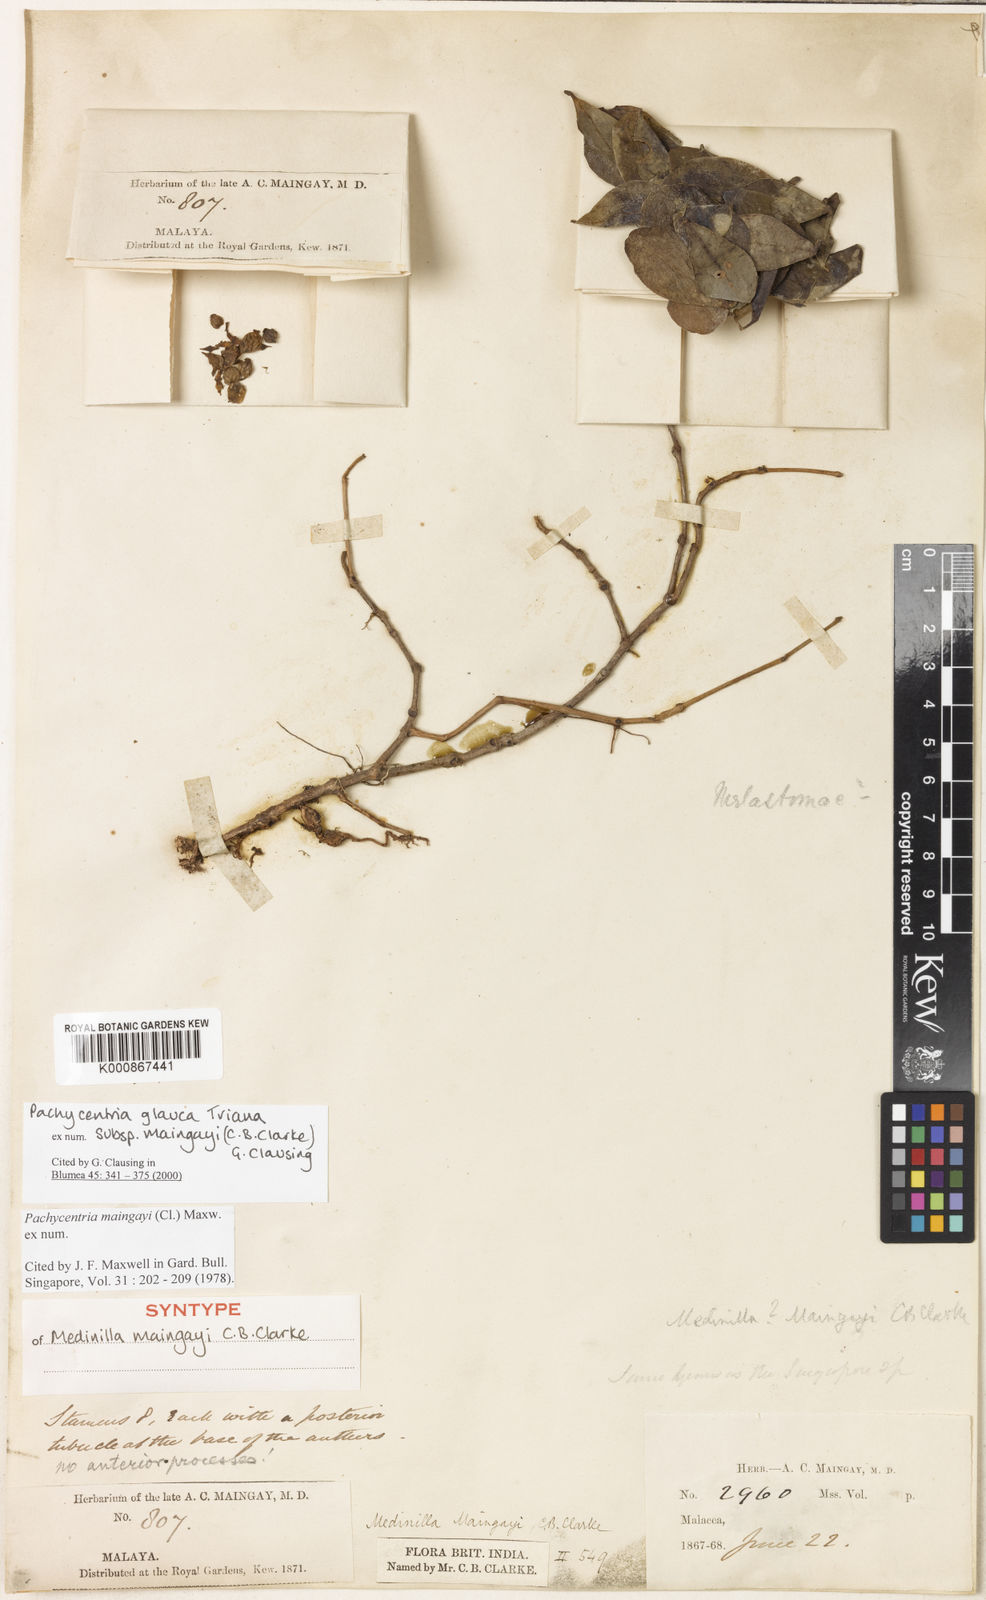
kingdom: Plantae
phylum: Tracheophyta
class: Magnoliopsida
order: Myrtales
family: Melastomataceae
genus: Pachycentria
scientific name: Pachycentria glauca
